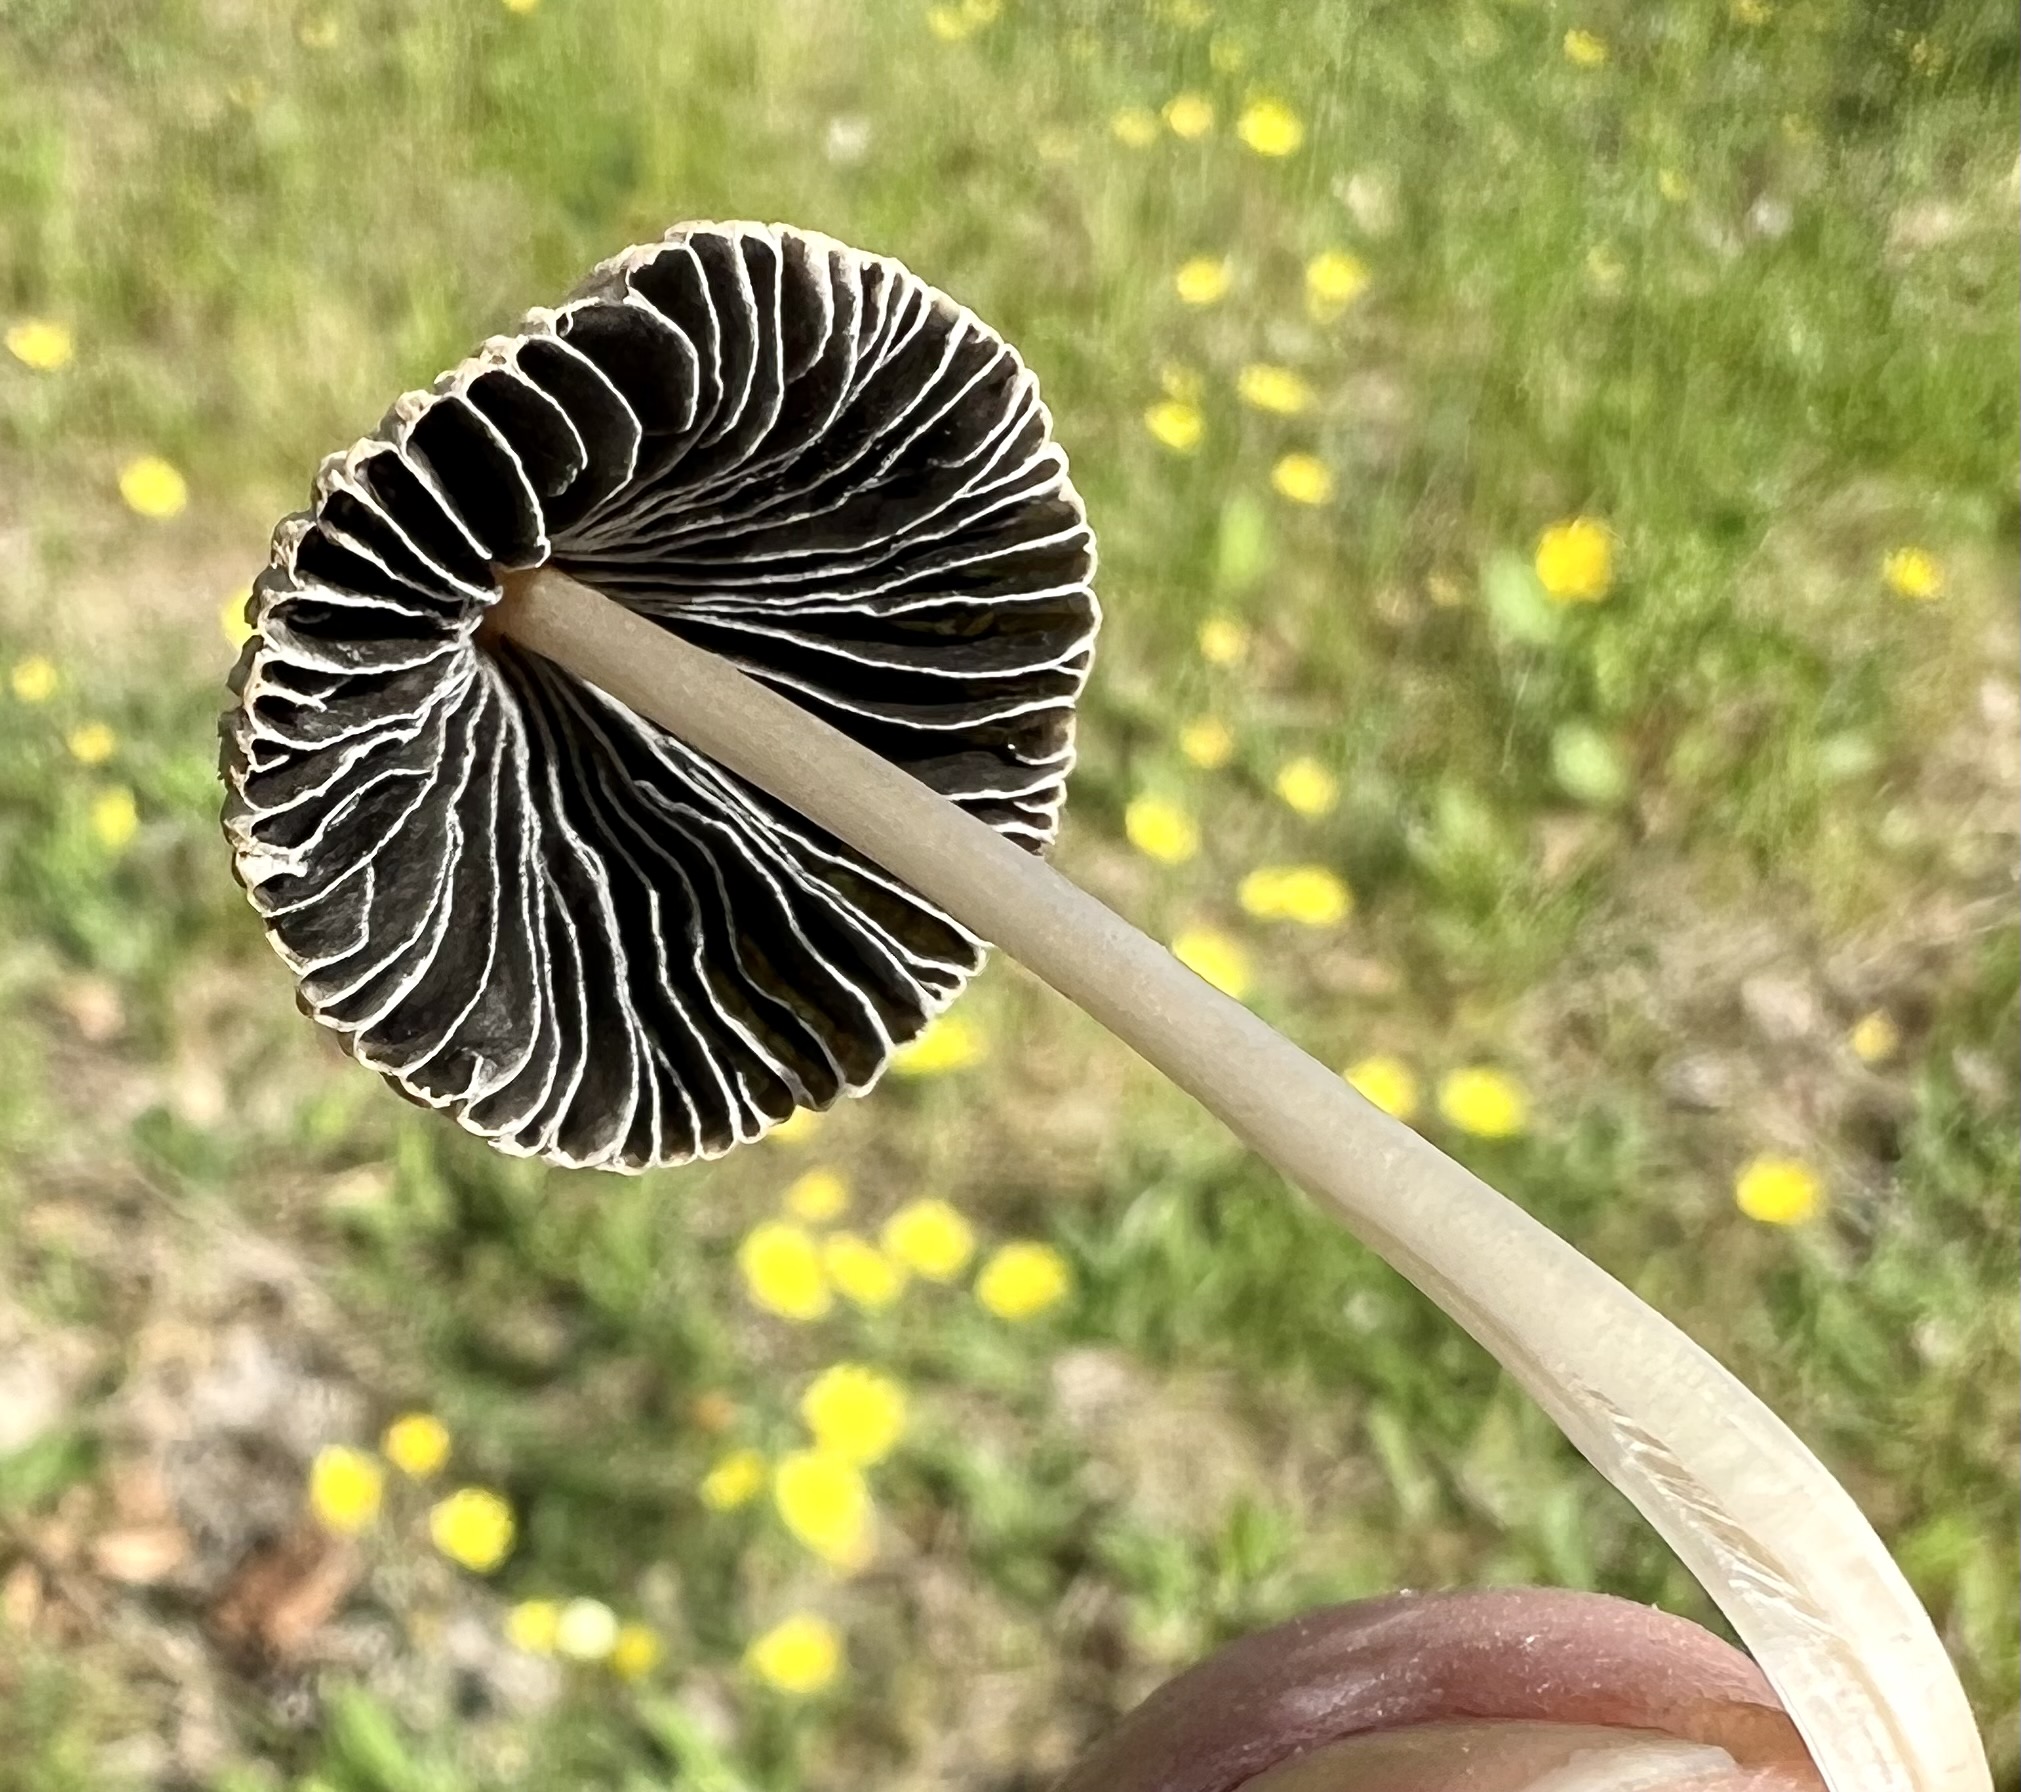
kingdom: Fungi
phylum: Basidiomycota
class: Agaricomycetes
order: Agaricales
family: Psathyrellaceae
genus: Parasola
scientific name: Parasola
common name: hjulhat
